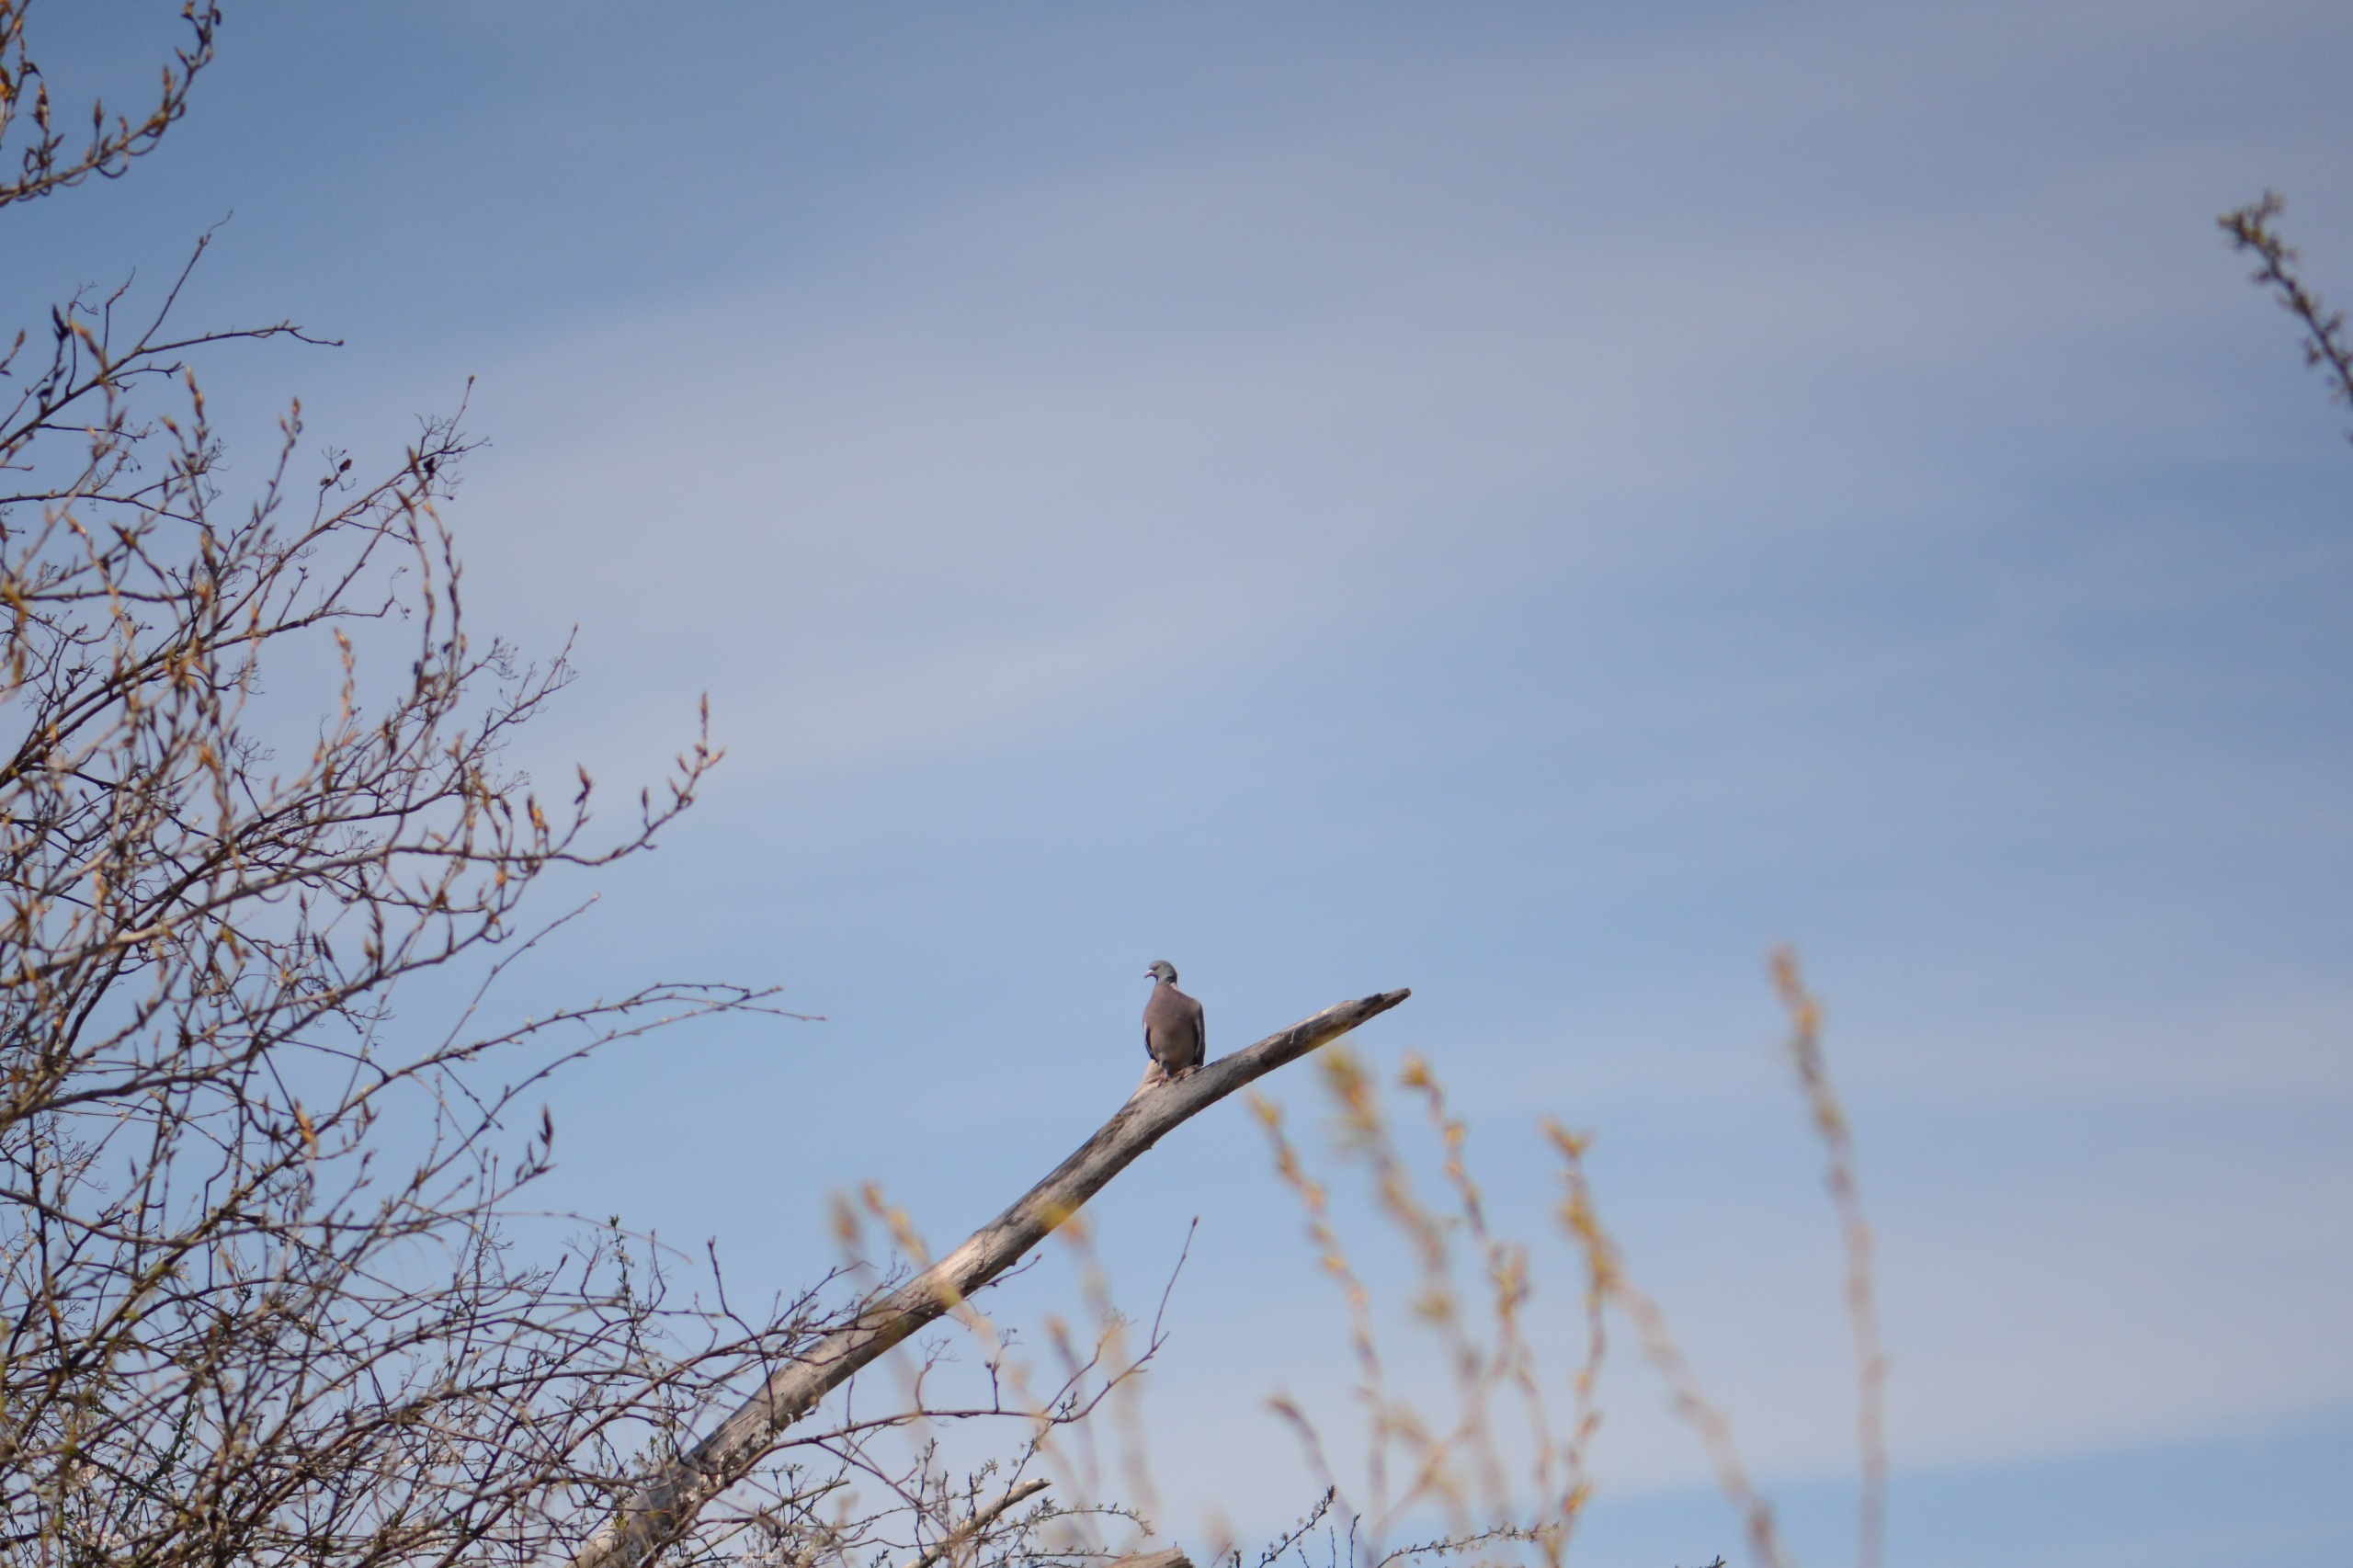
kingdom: Animalia
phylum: Chordata
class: Aves
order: Columbiformes
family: Columbidae
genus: Columba
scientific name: Columba palumbus
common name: Ringdue
